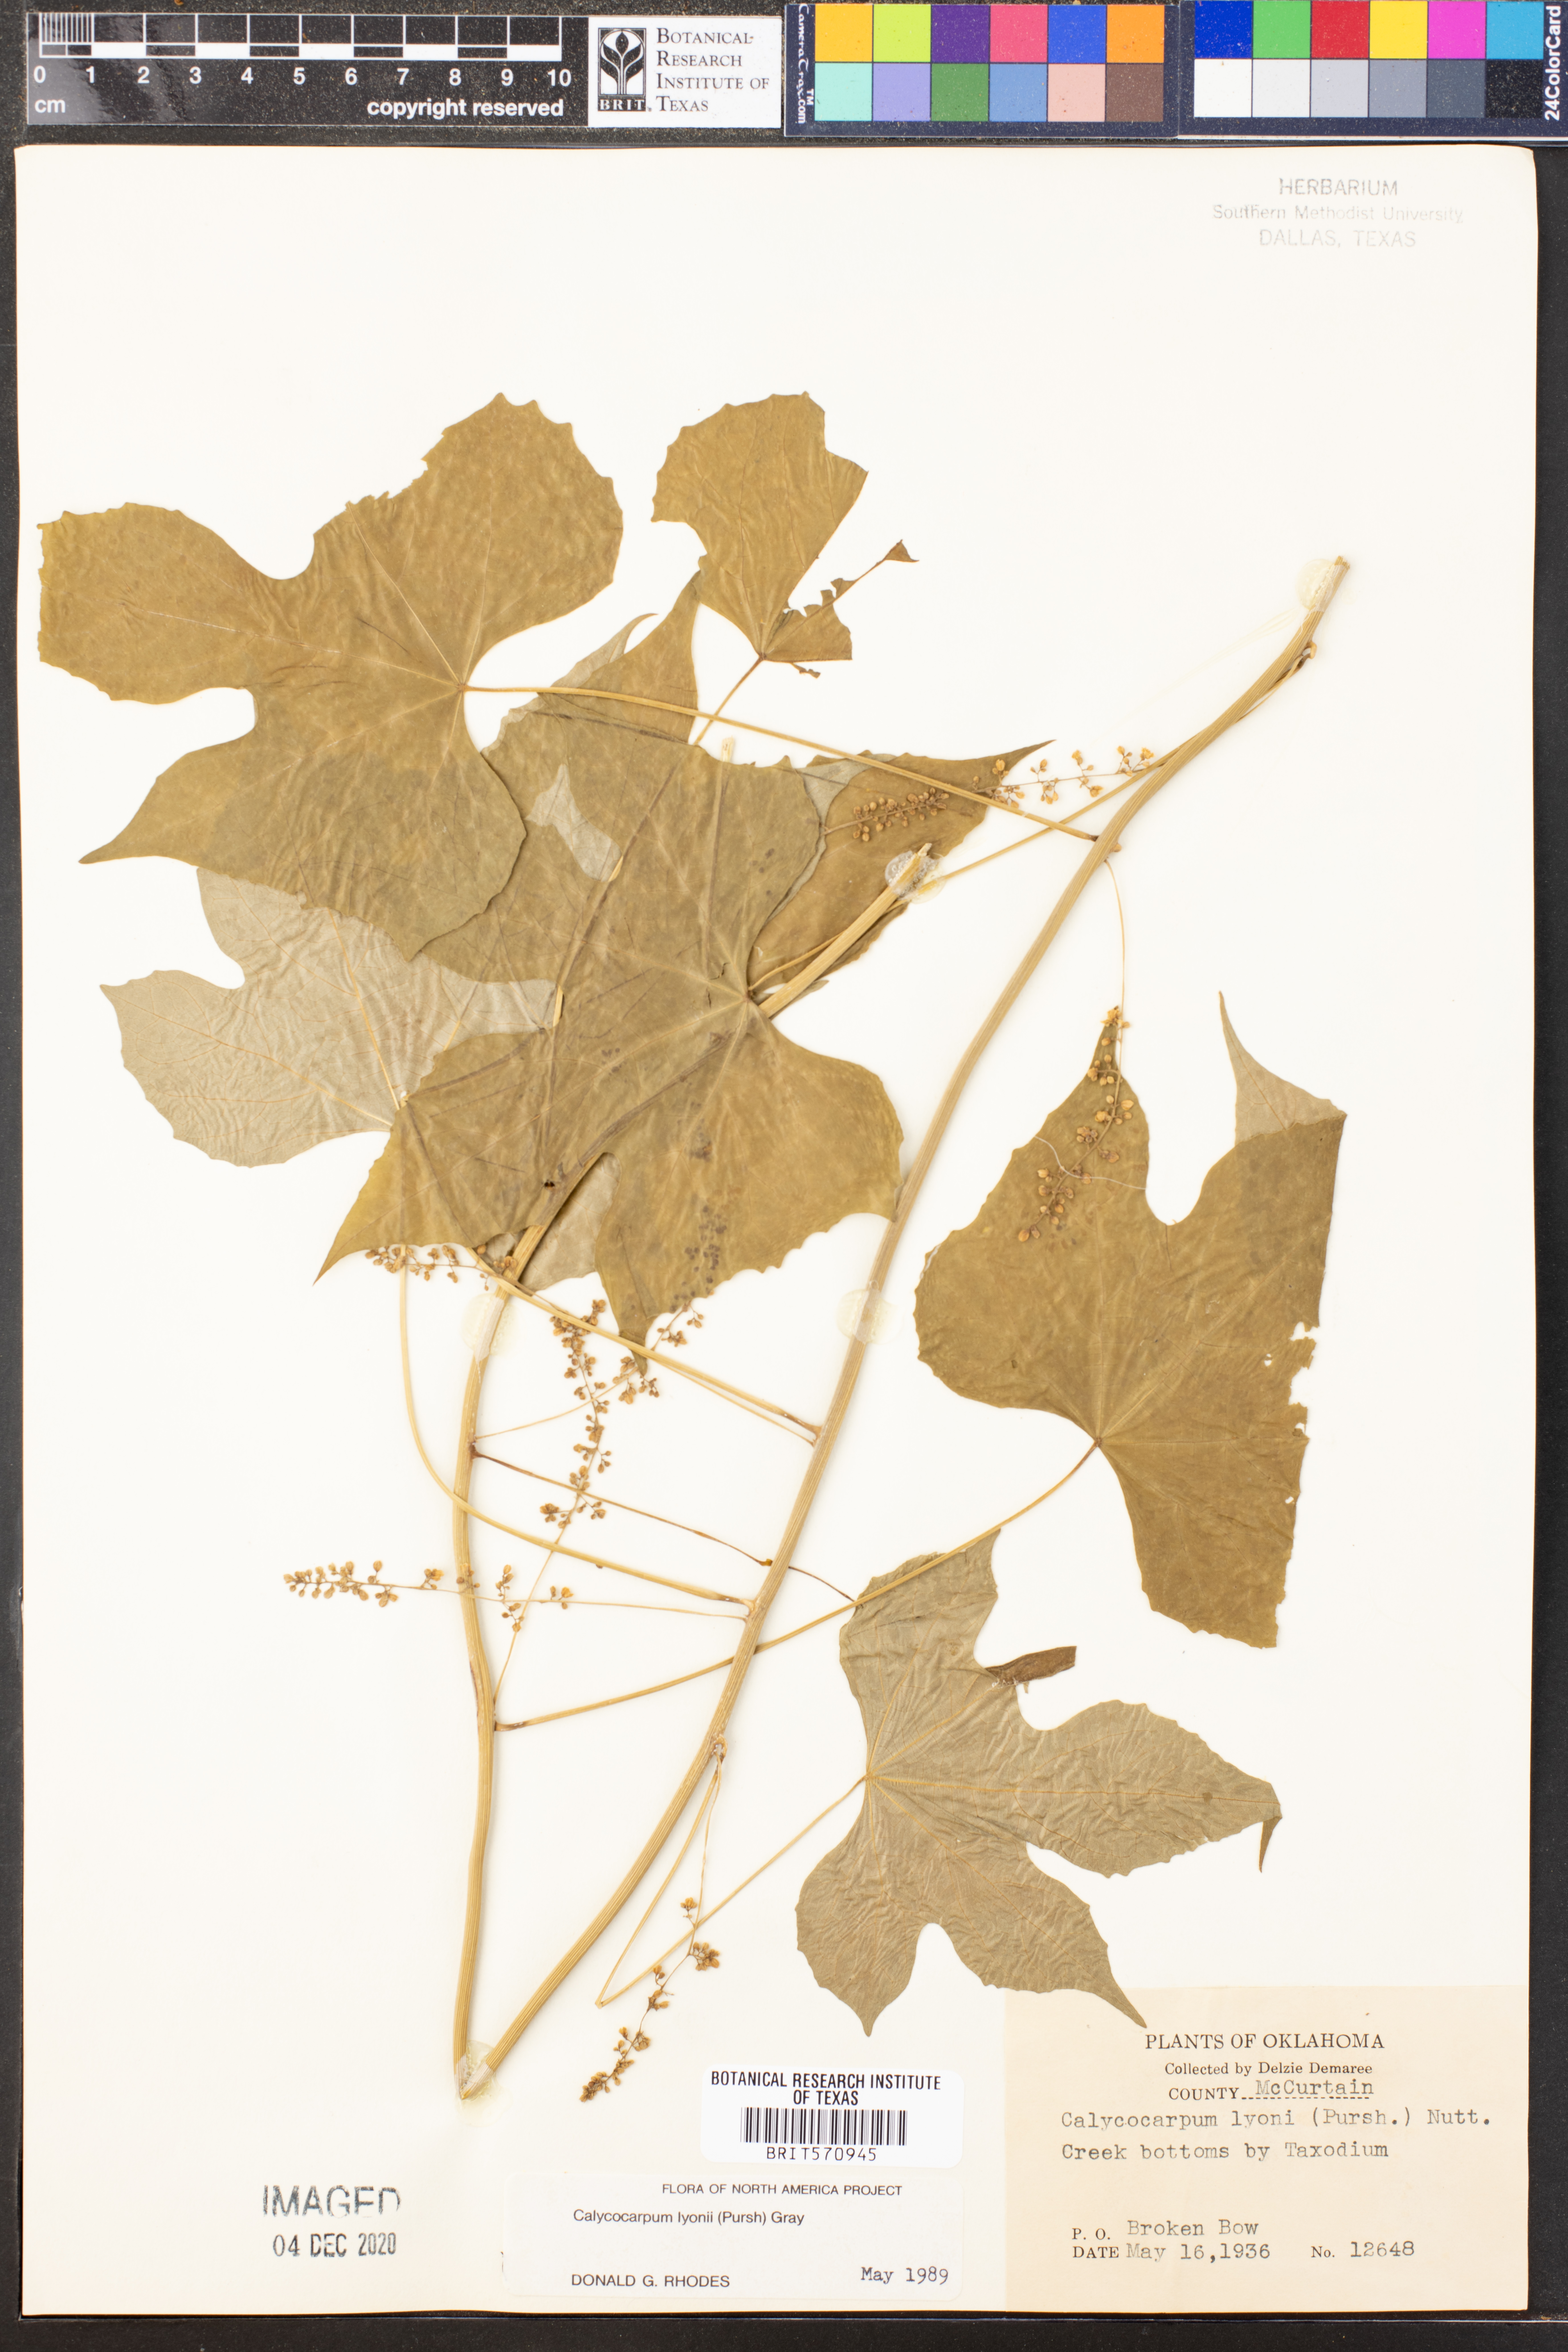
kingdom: Plantae
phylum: Tracheophyta
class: Magnoliopsida
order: Ranunculales
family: Menispermaceae
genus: Calycocarpum
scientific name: Calycocarpum lyonii
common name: Cupseed
